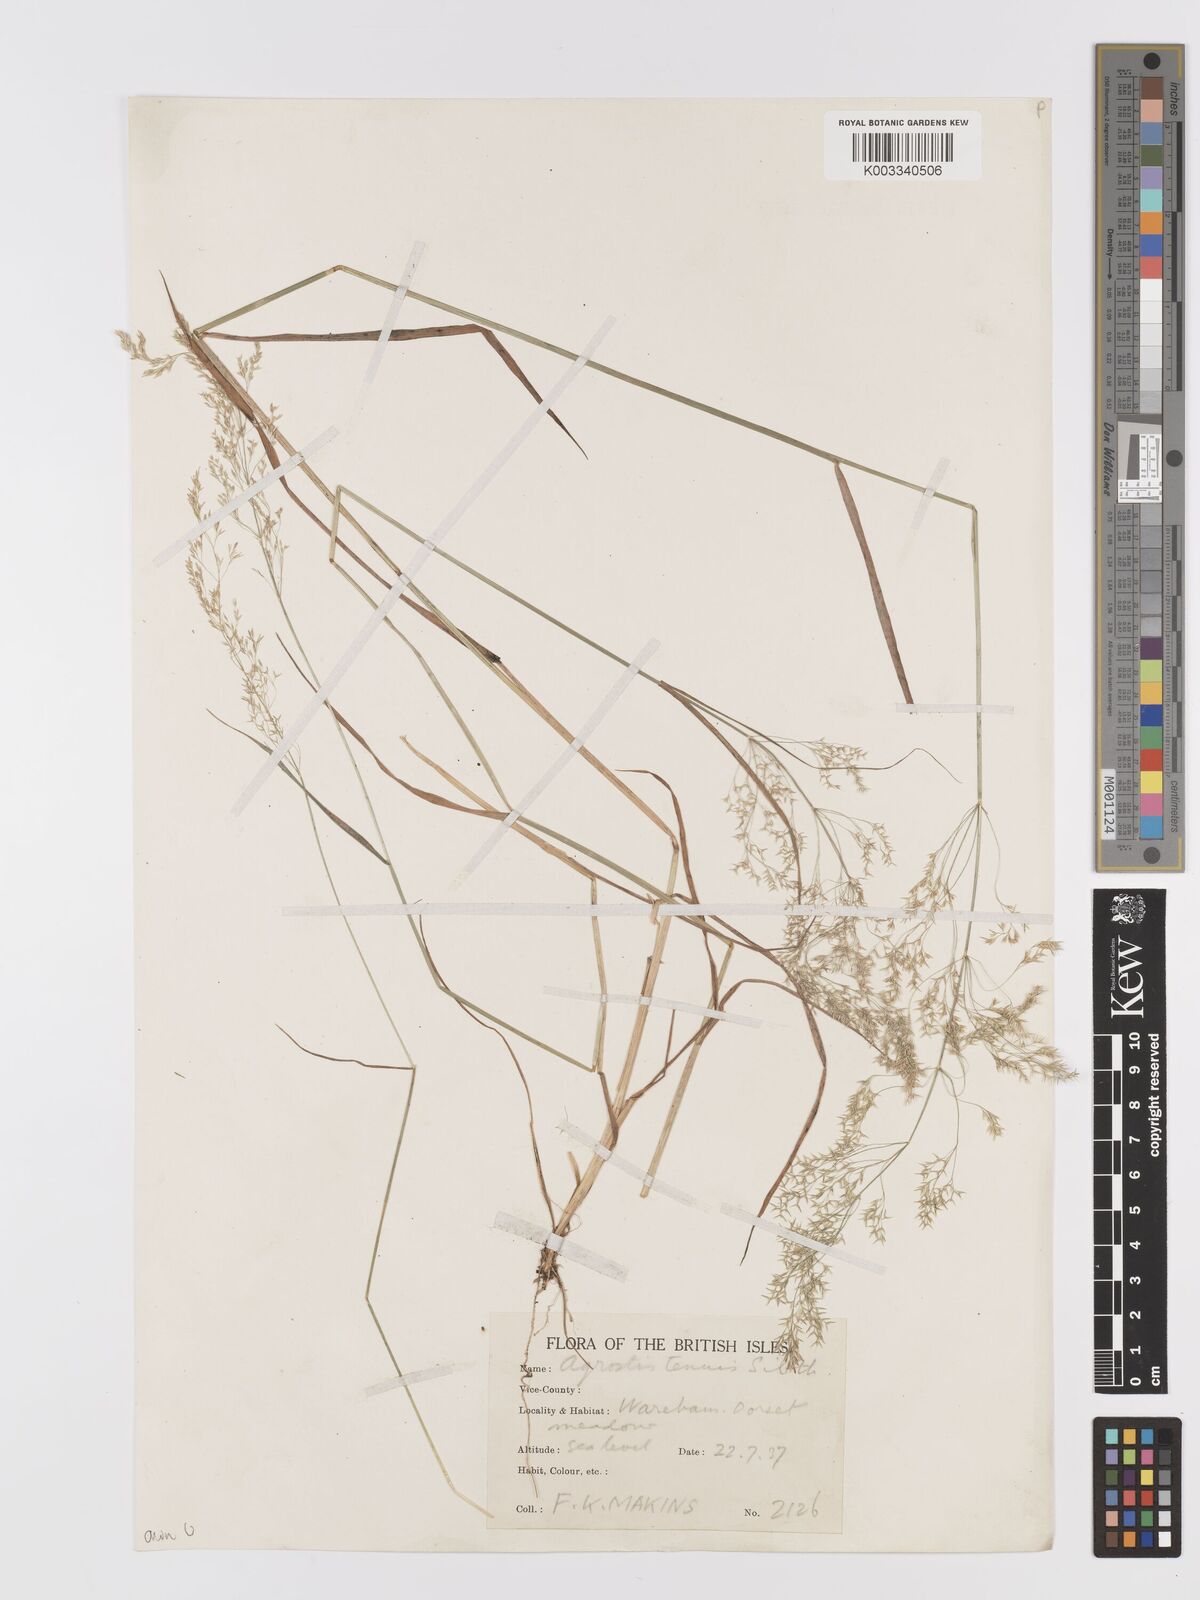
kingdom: Plantae
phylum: Tracheophyta
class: Liliopsida
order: Poales
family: Poaceae
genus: Agrostis
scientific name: Agrostis capillaris
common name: Colonial bentgrass
